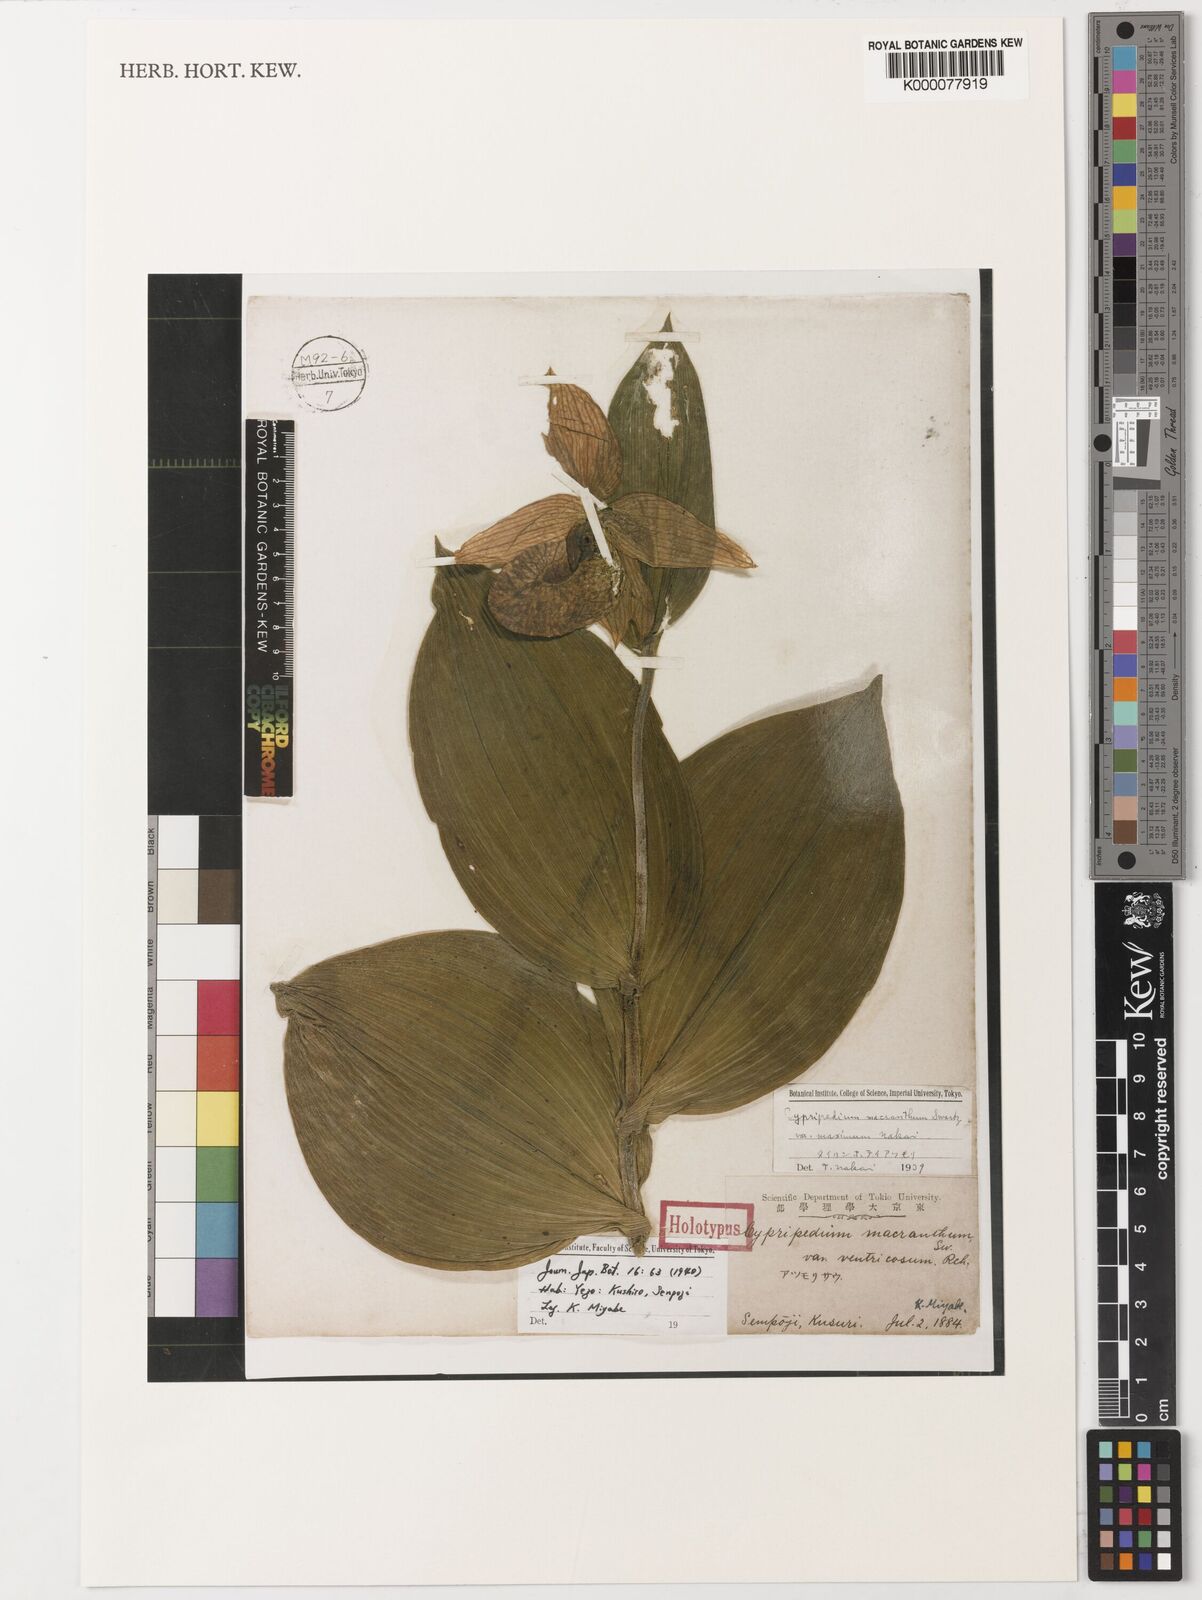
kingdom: Plantae
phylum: Tracheophyta
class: Liliopsida
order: Asparagales
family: Orchidaceae
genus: Cypripedium
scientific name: Cypripedium macranthos
